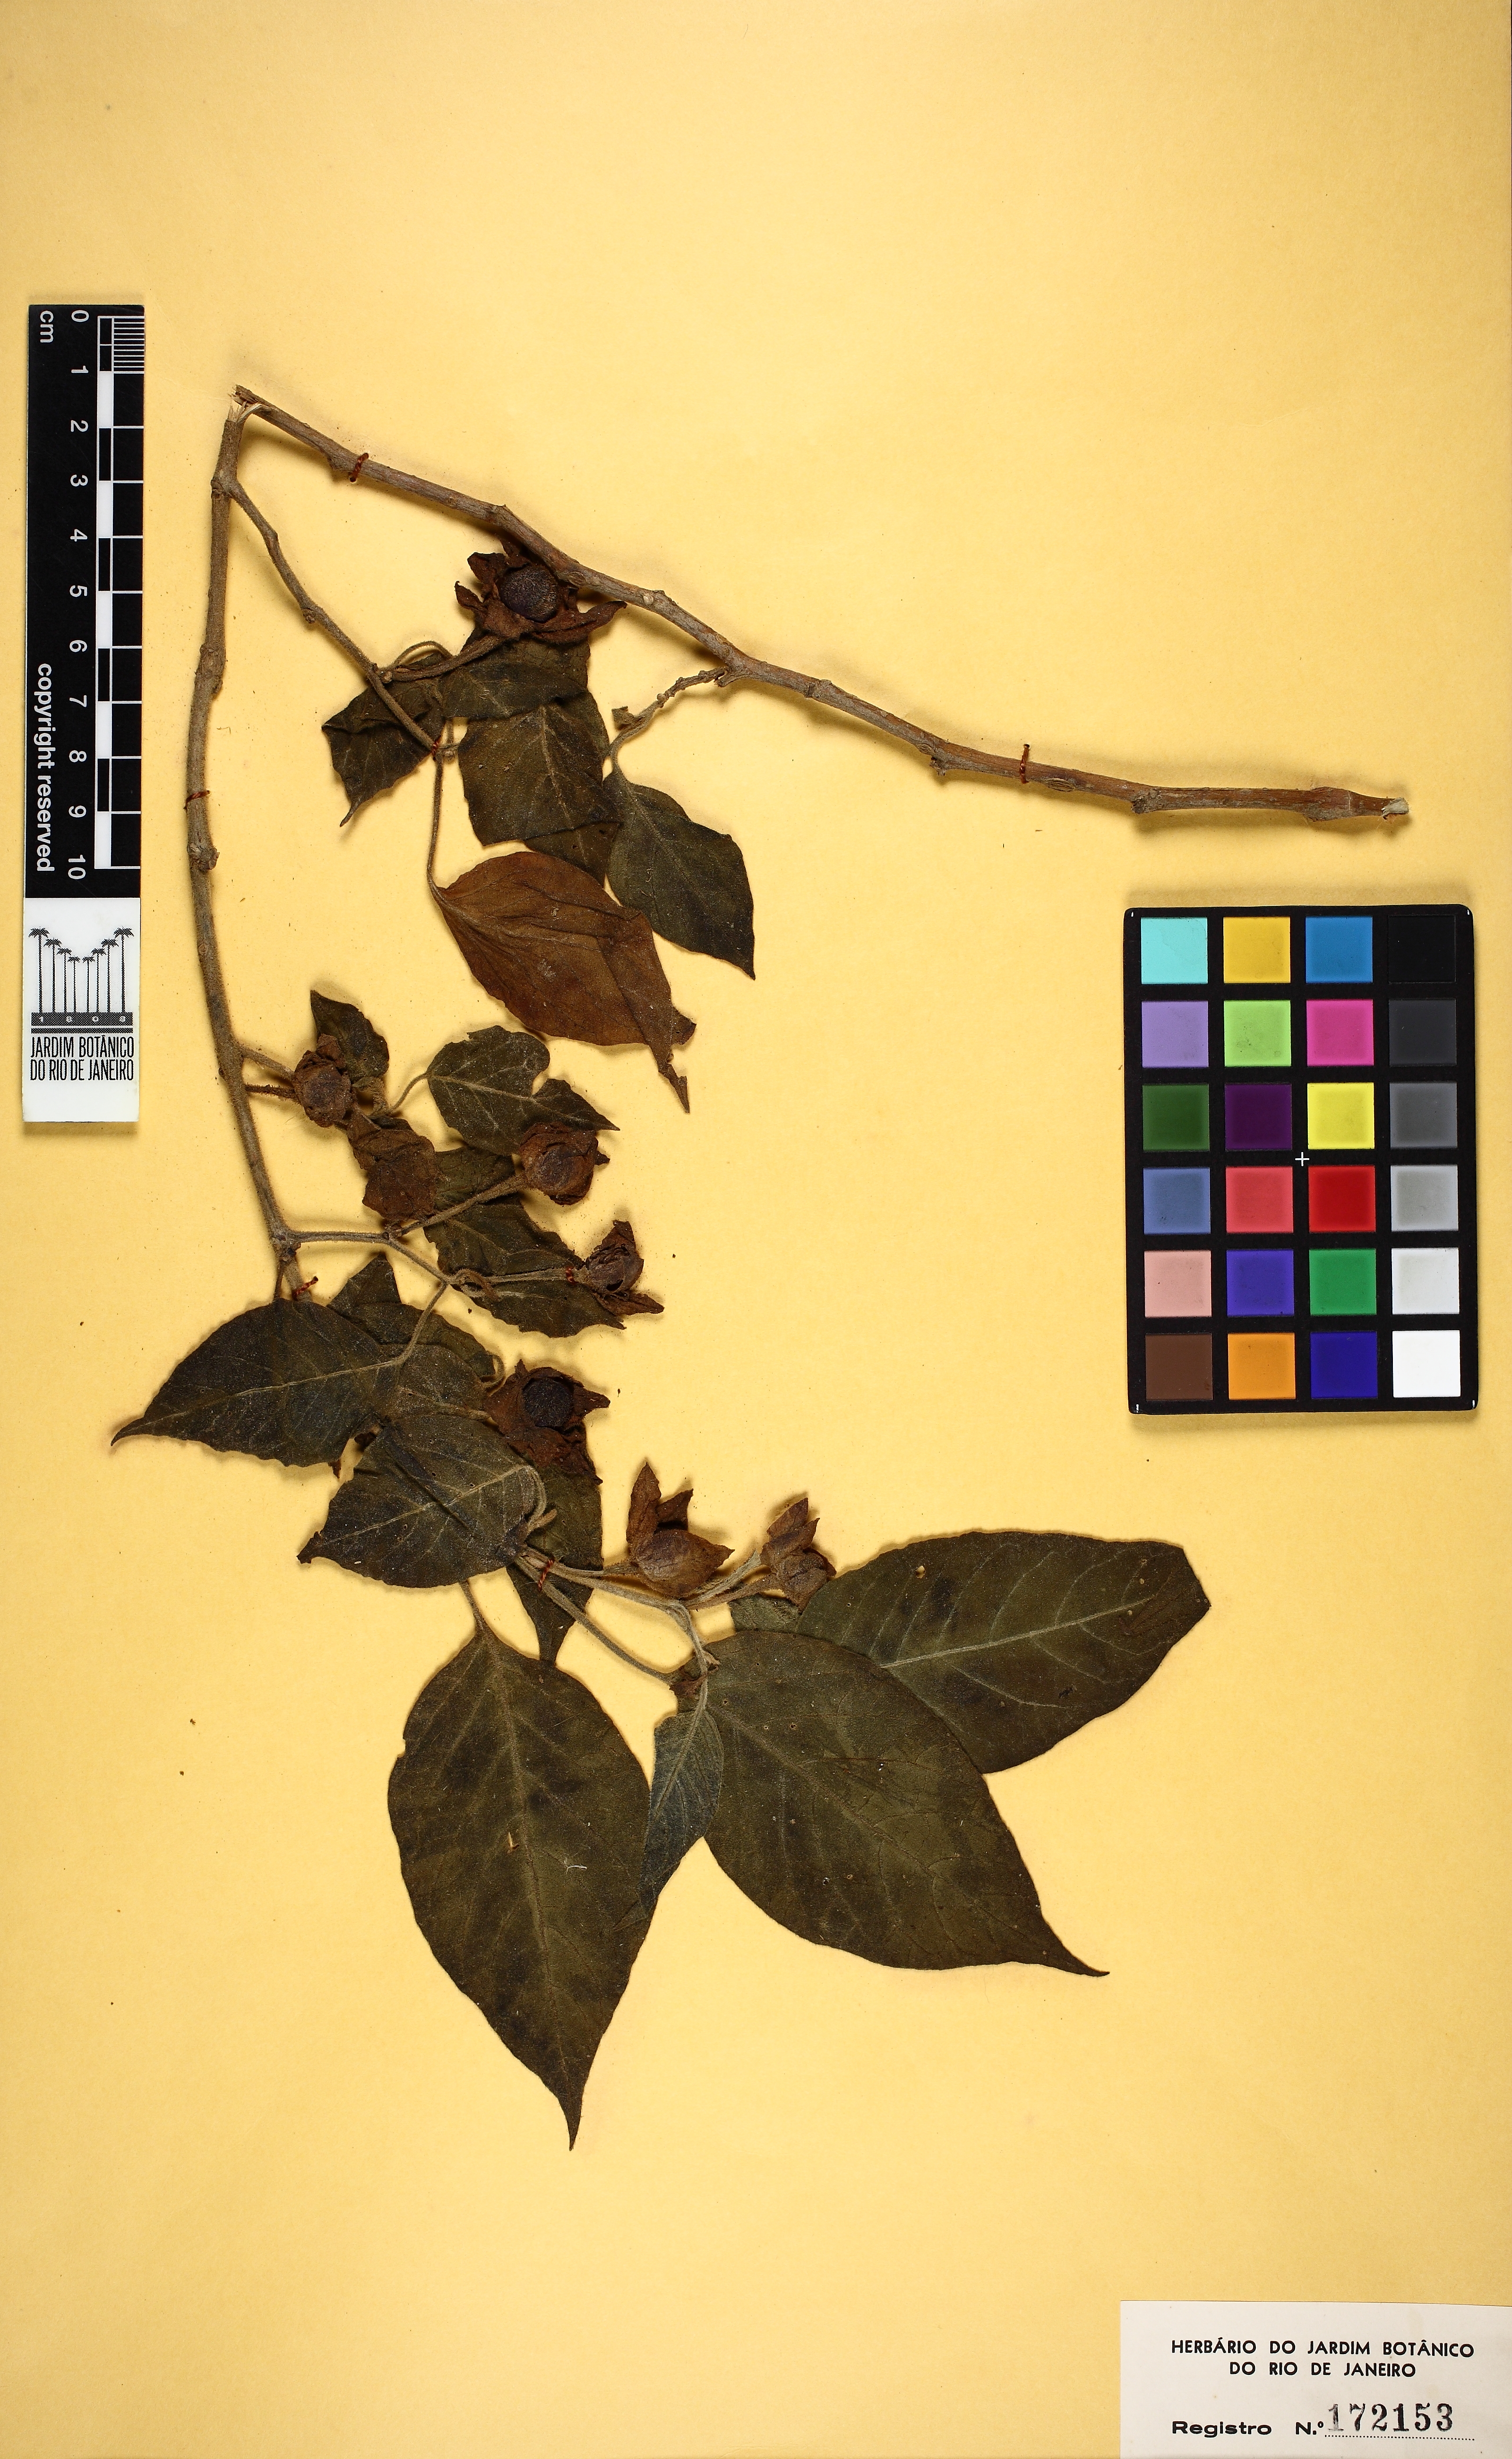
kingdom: Plantae
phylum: Tracheophyta
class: Magnoliopsida
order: Solanales
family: Solanaceae
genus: Athenaea
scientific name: Athenaea cuspidata
